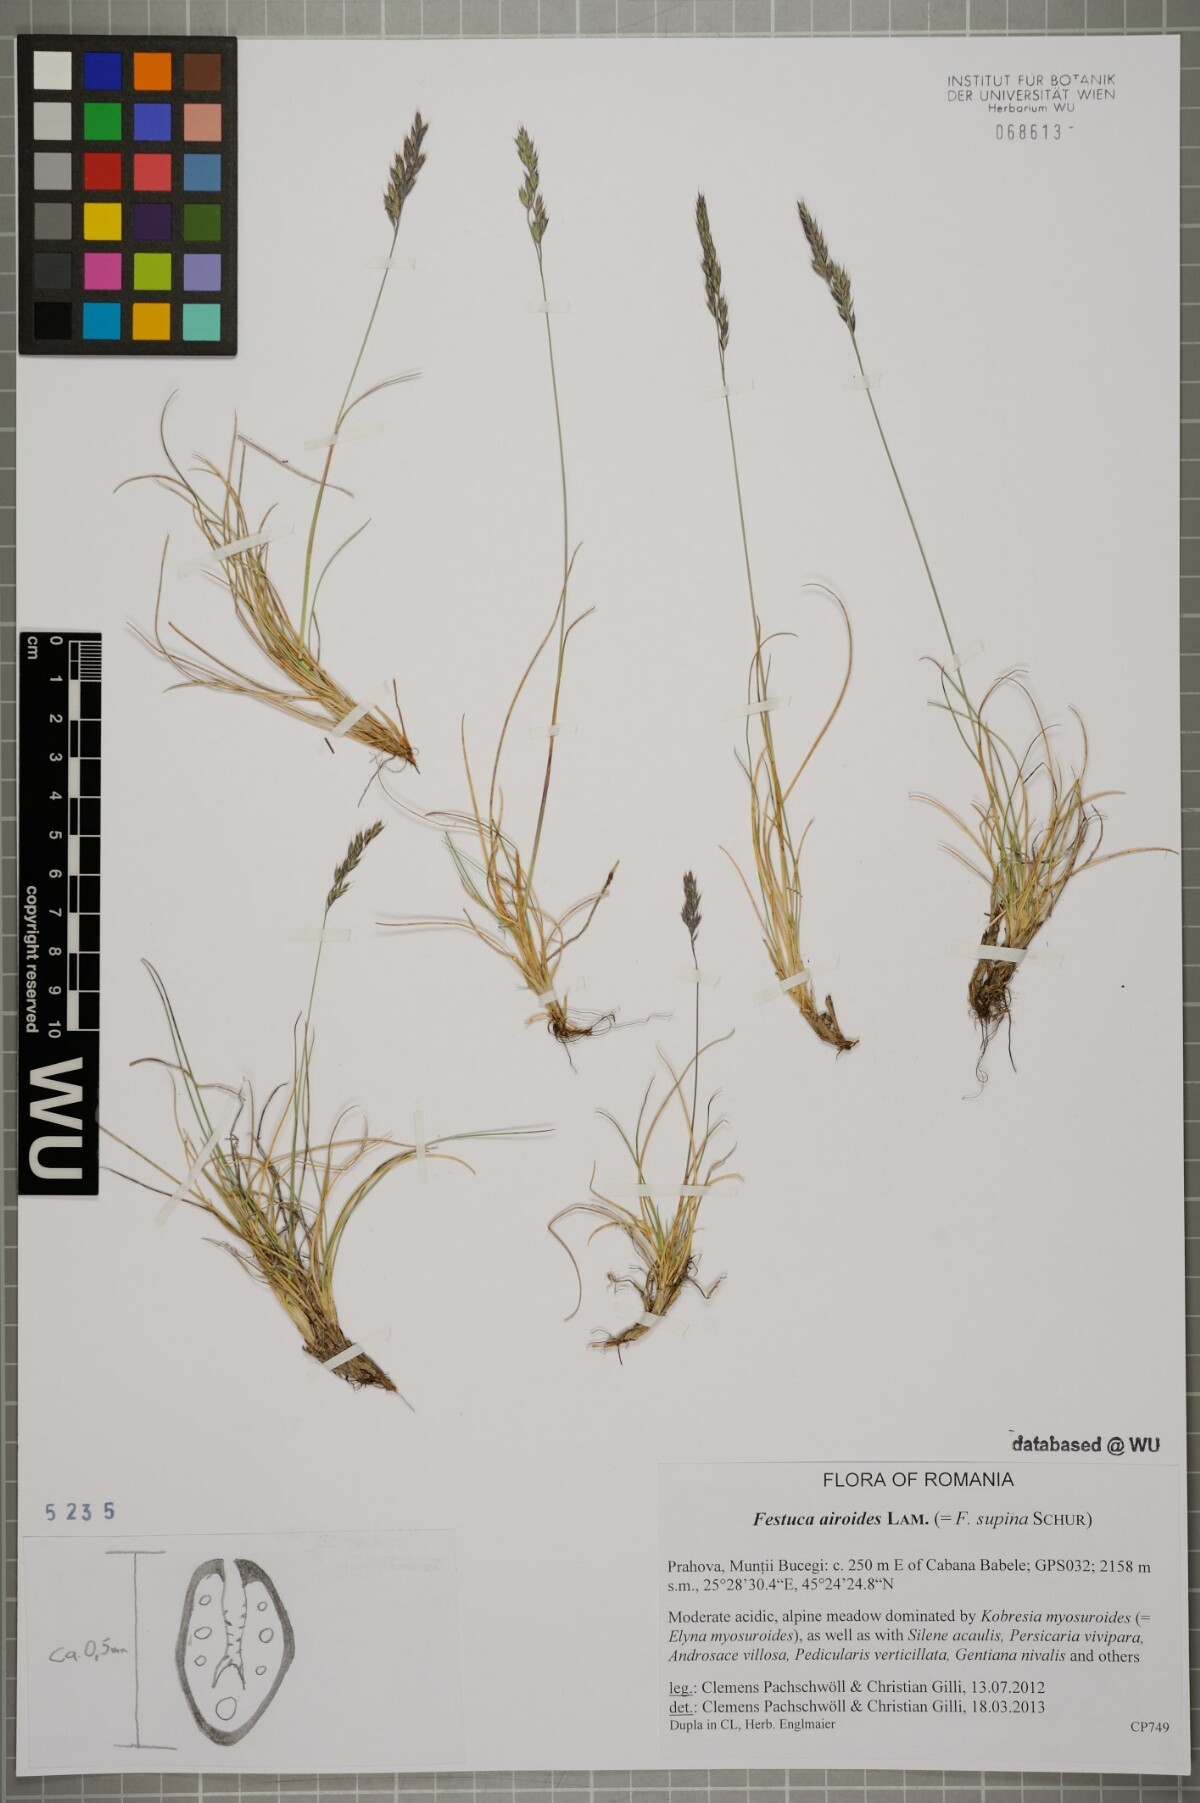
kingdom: Plantae
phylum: Tracheophyta
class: Liliopsida
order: Poales
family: Poaceae
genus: Festuca
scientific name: Festuca airoides
